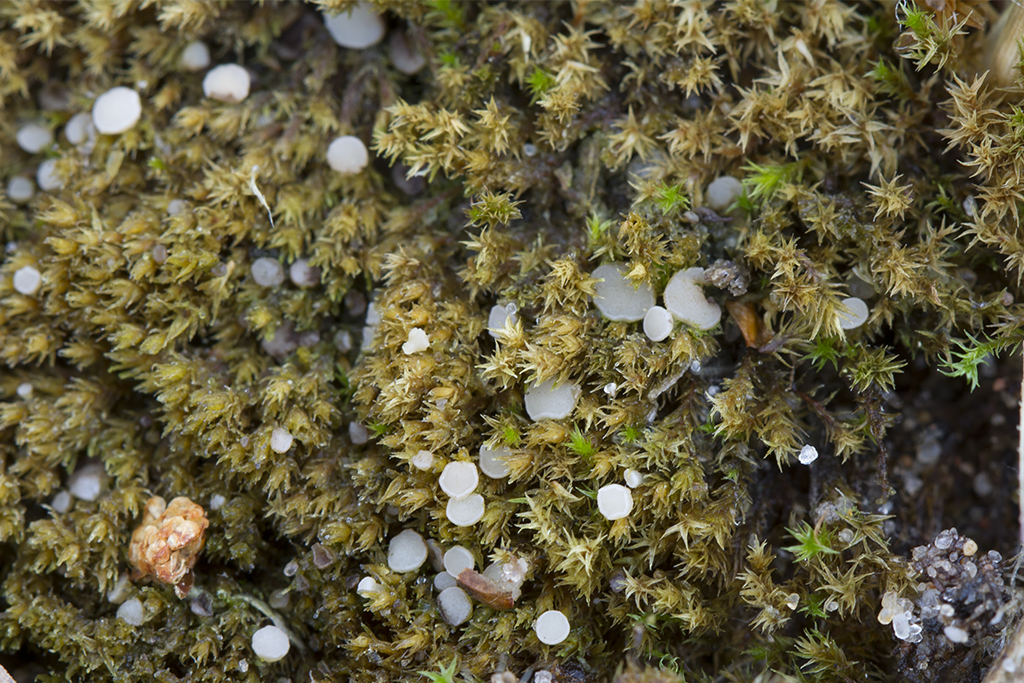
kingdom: Fungi
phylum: Ascomycota
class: Leotiomycetes
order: Helotiales
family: Helotiaceae
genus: Bryoscyphus
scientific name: Bryoscyphus dicrani
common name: bladmos-stilkskive
